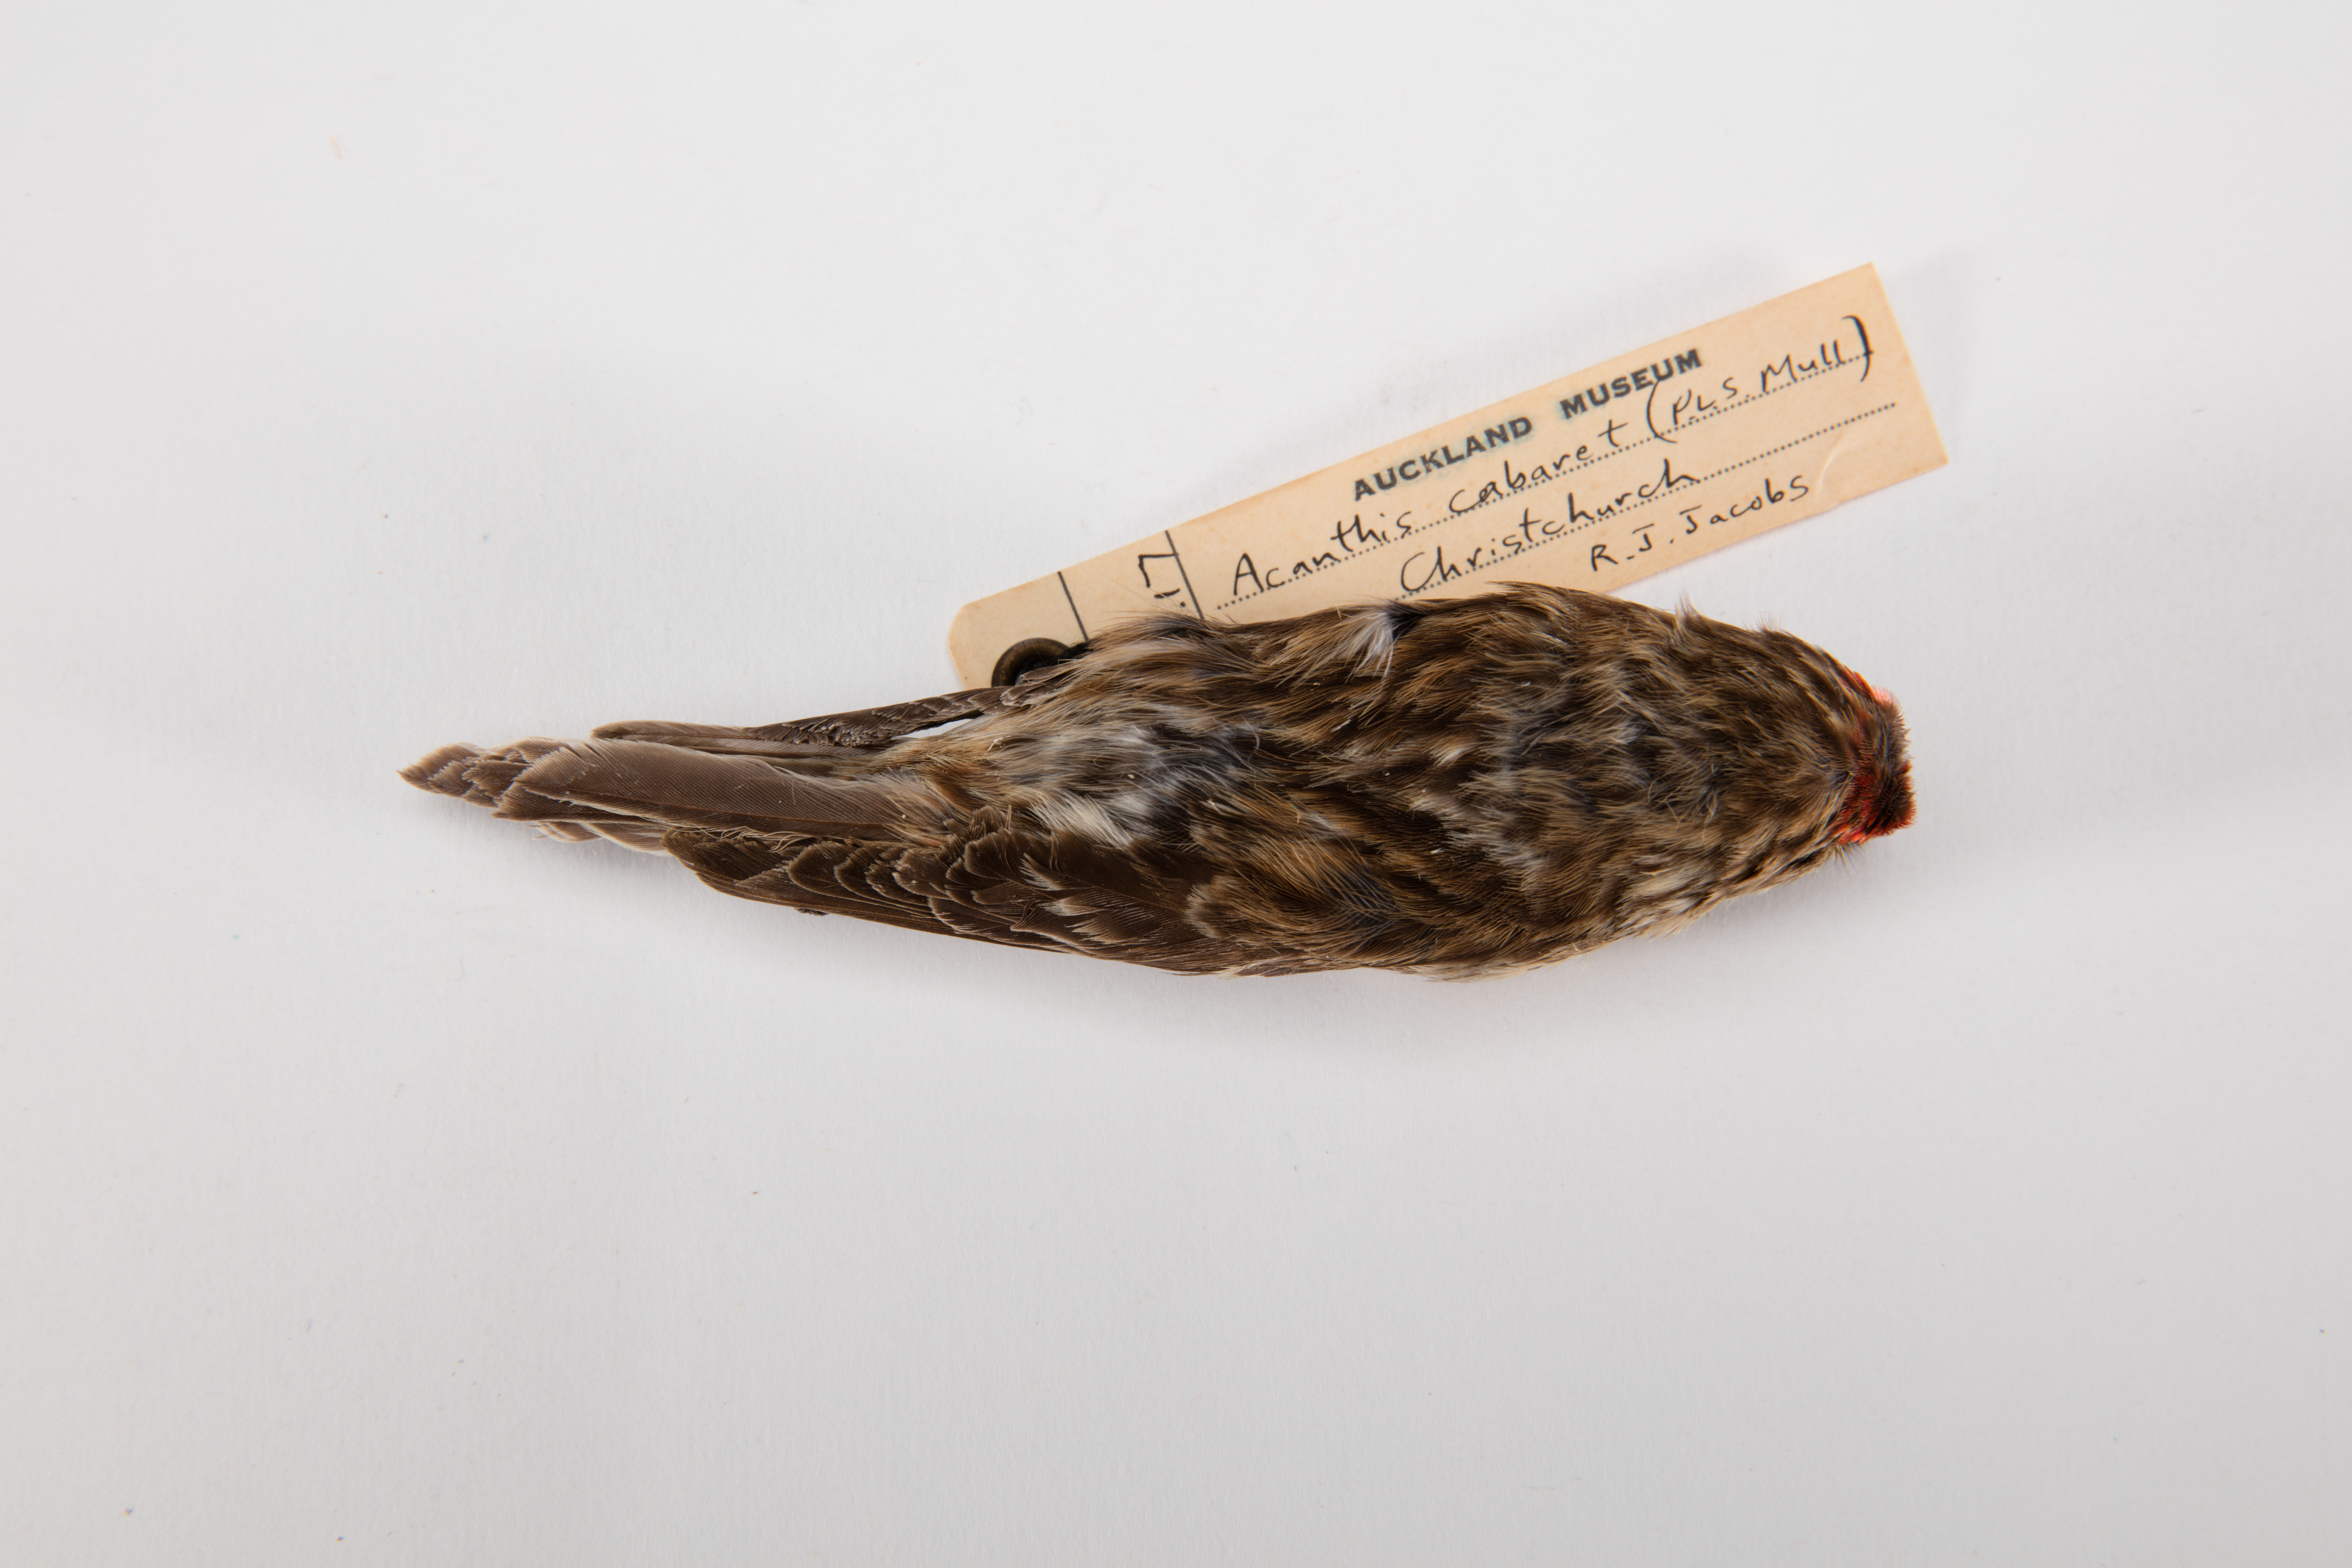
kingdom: Animalia
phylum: Chordata
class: Aves
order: Passeriformes
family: Fringillidae
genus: Acanthis
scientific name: Acanthis flammea
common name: Common redpoll
